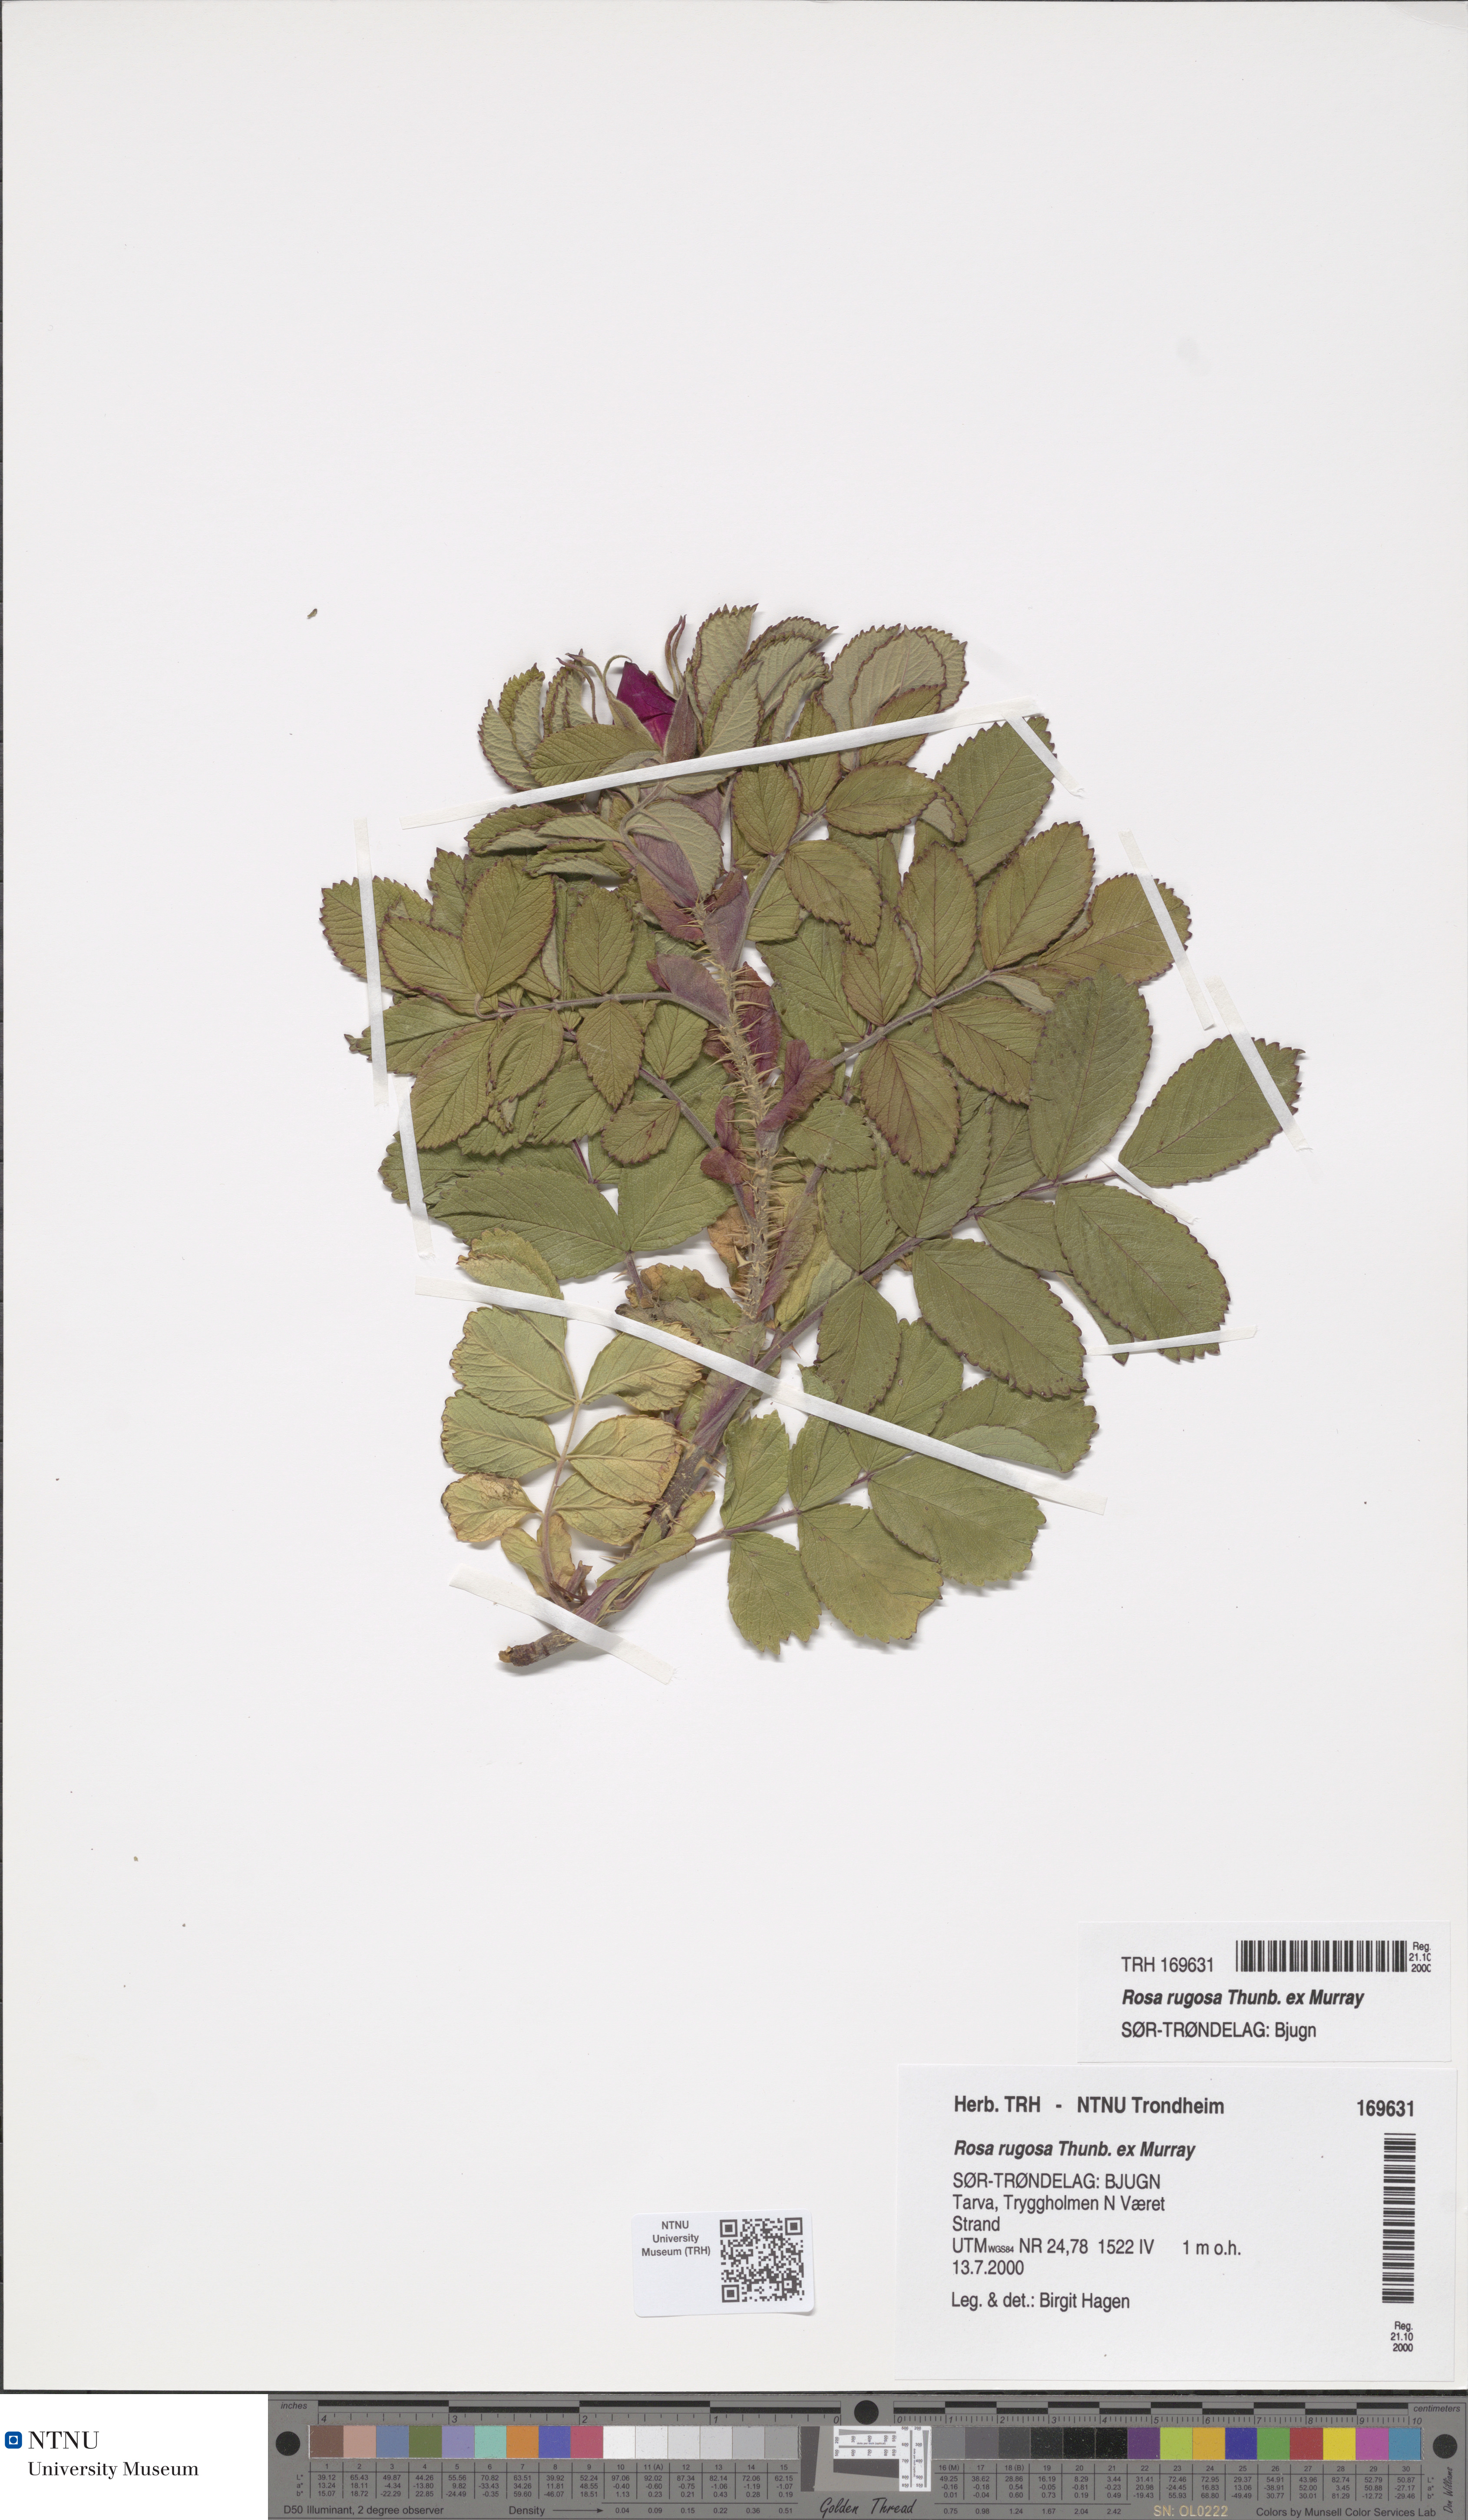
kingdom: Plantae
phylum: Tracheophyta
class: Magnoliopsida
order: Rosales
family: Rosaceae
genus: Rosa
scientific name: Rosa rugosa
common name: Japanese rose
